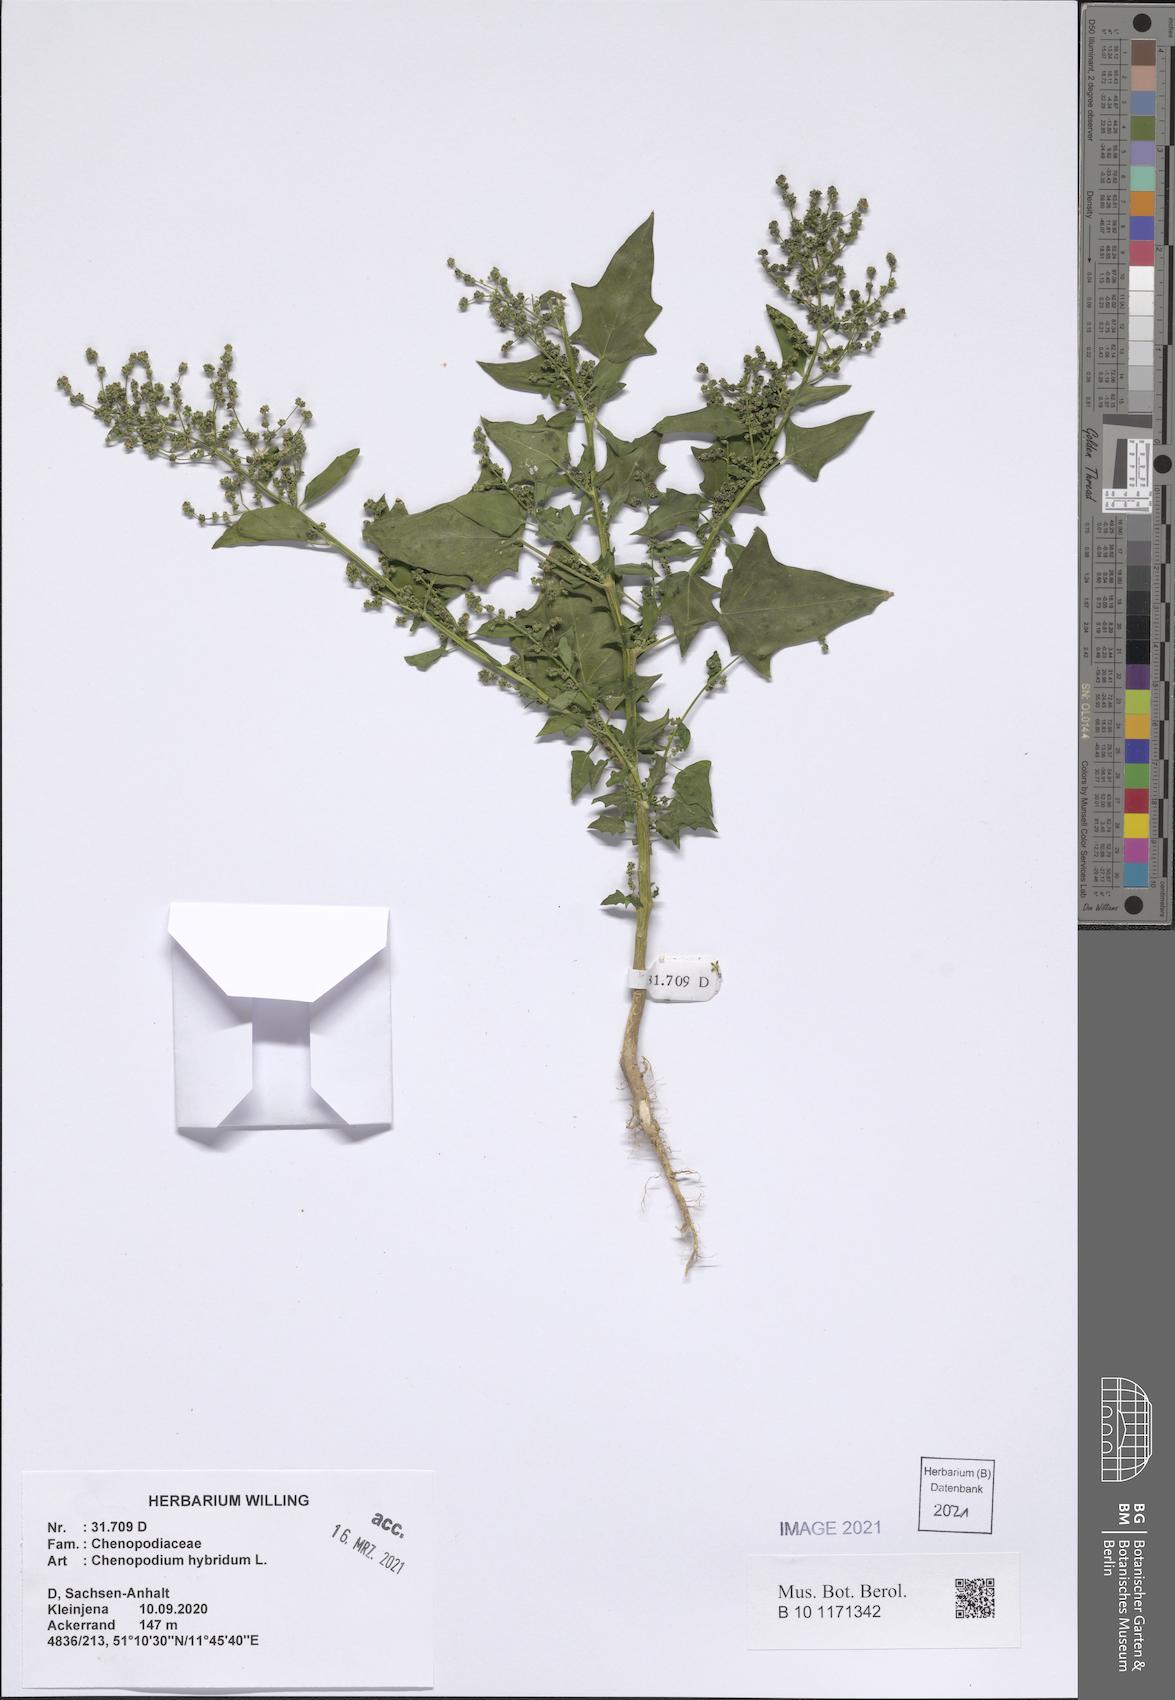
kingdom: Plantae
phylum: Tracheophyta
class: Magnoliopsida
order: Caryophyllales
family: Amaranthaceae
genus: Chenopodiastrum
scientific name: Chenopodiastrum hybridum
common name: Mapleleaf goosefoot
